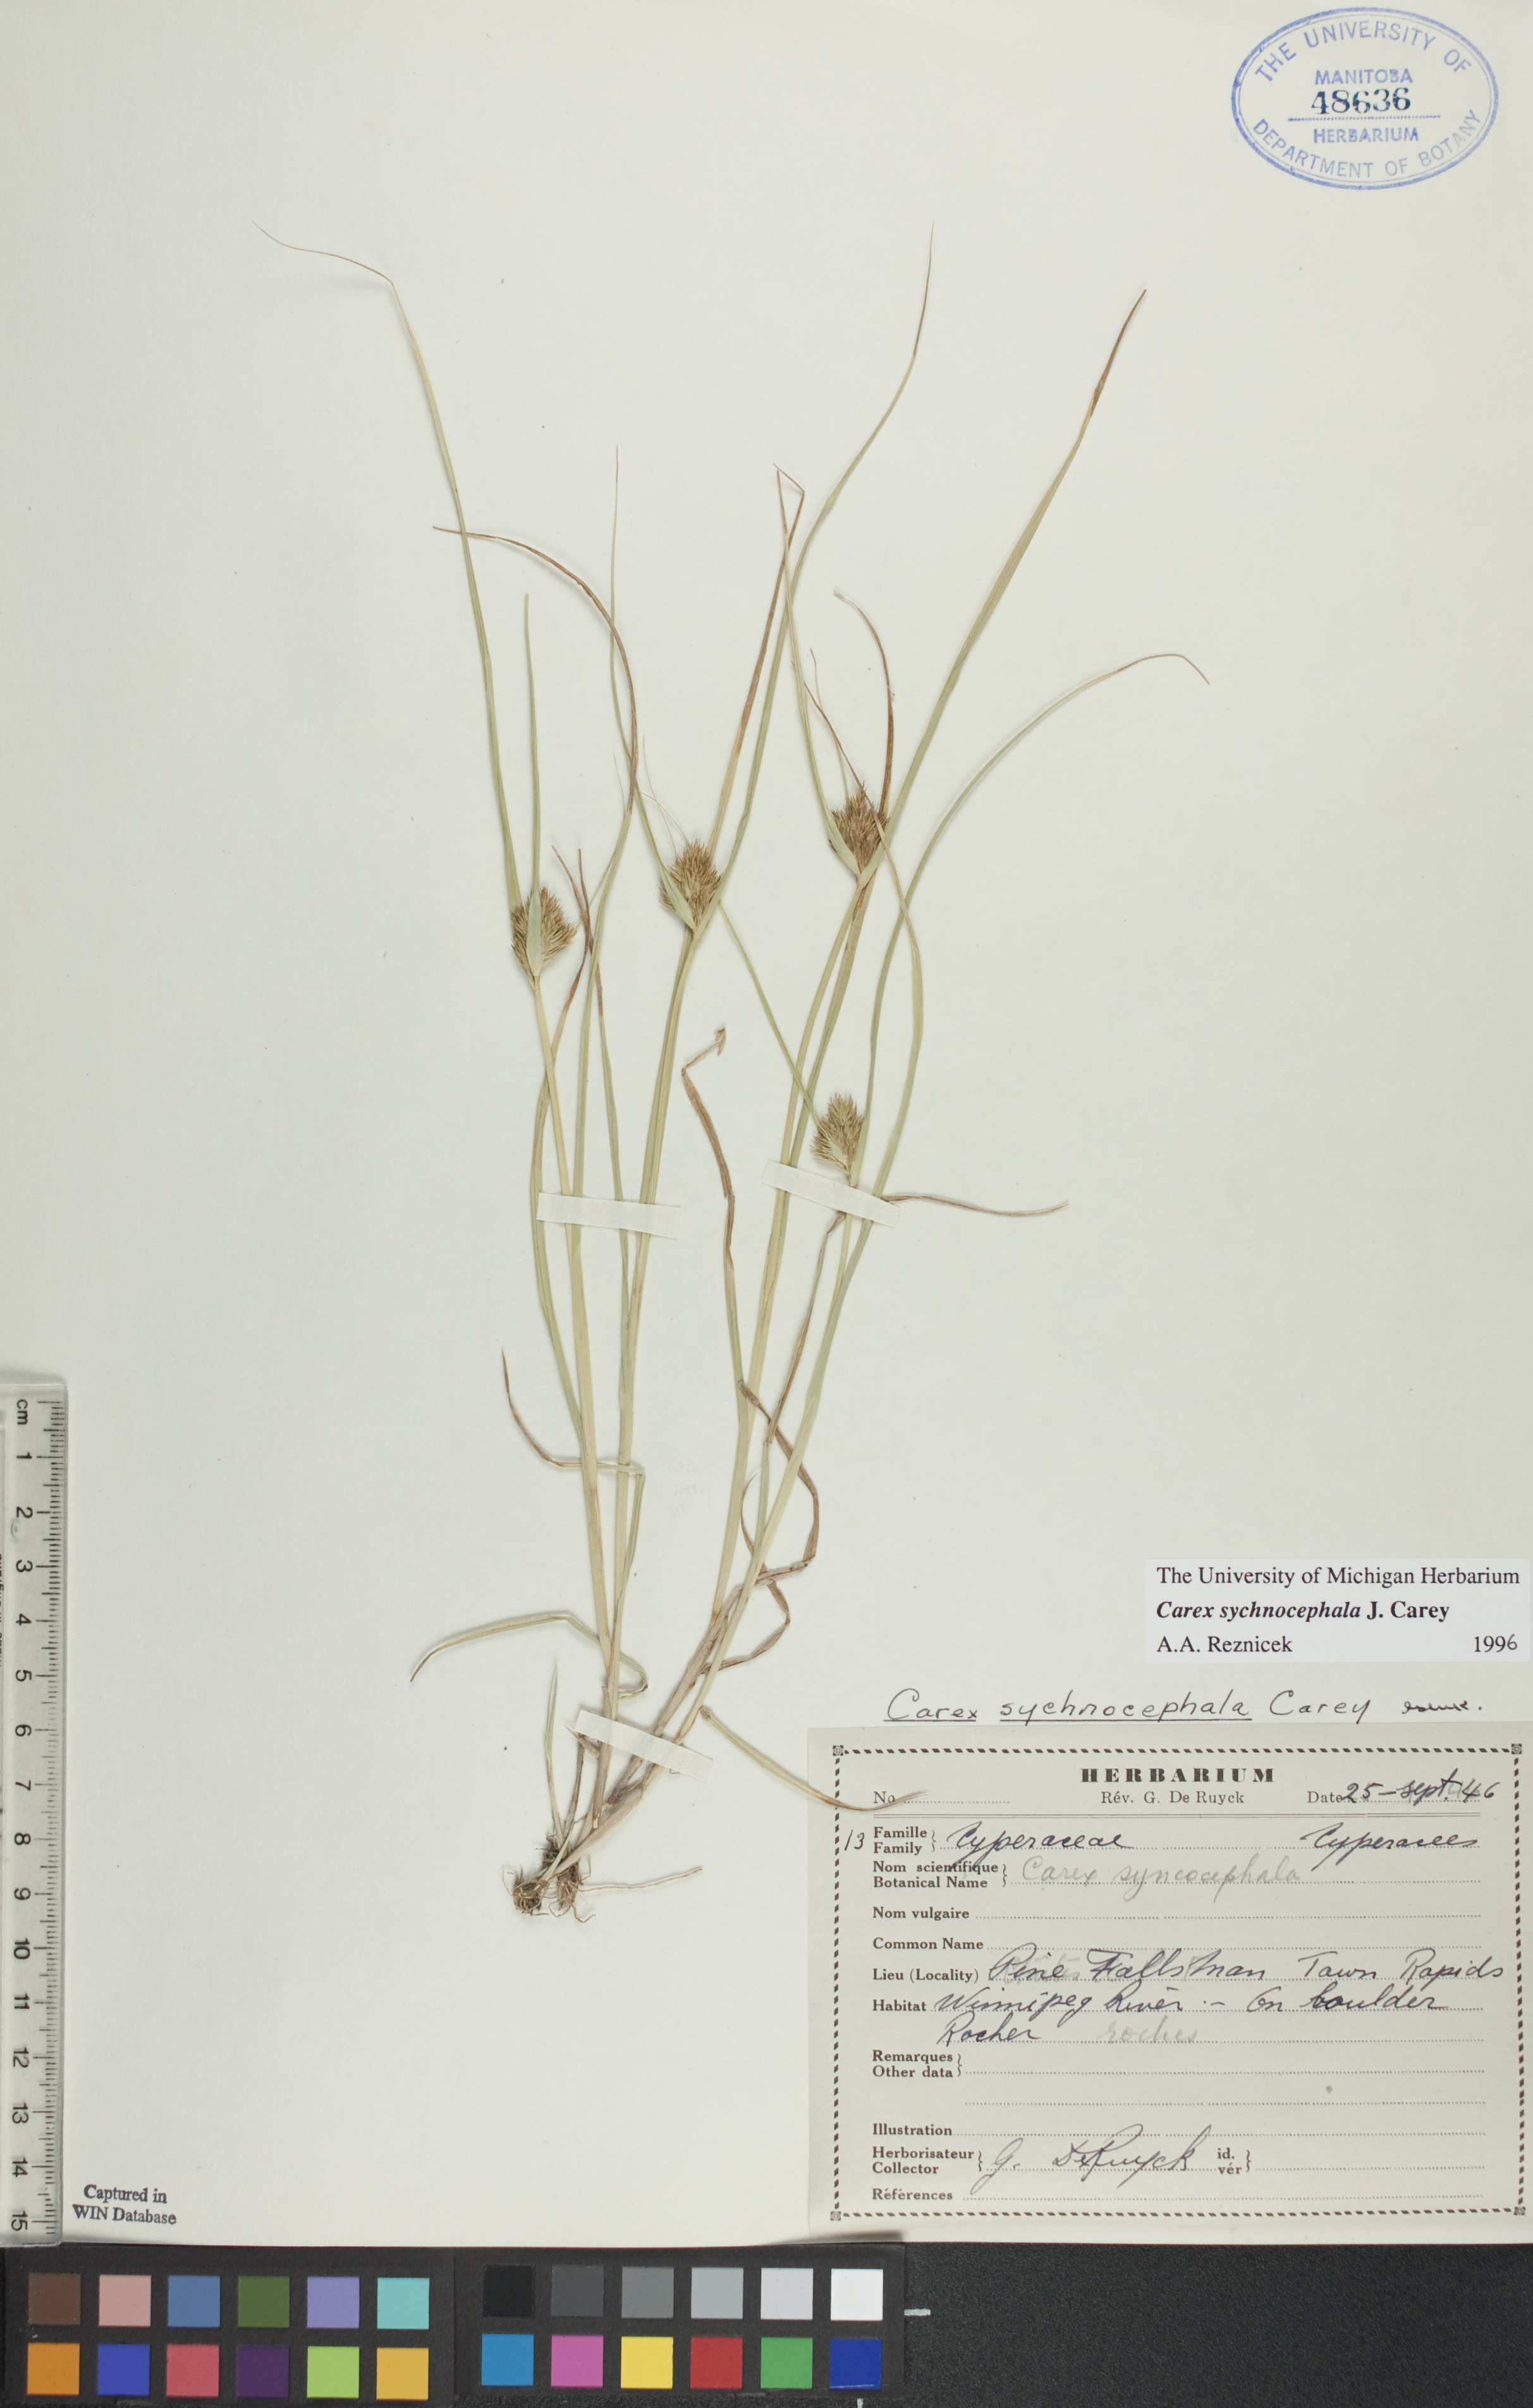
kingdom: Plantae
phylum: Tracheophyta
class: Liliopsida
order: Poales
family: Cyperaceae
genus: Carex
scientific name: Carex sychnocephala
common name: Dense long-beaked sedge
